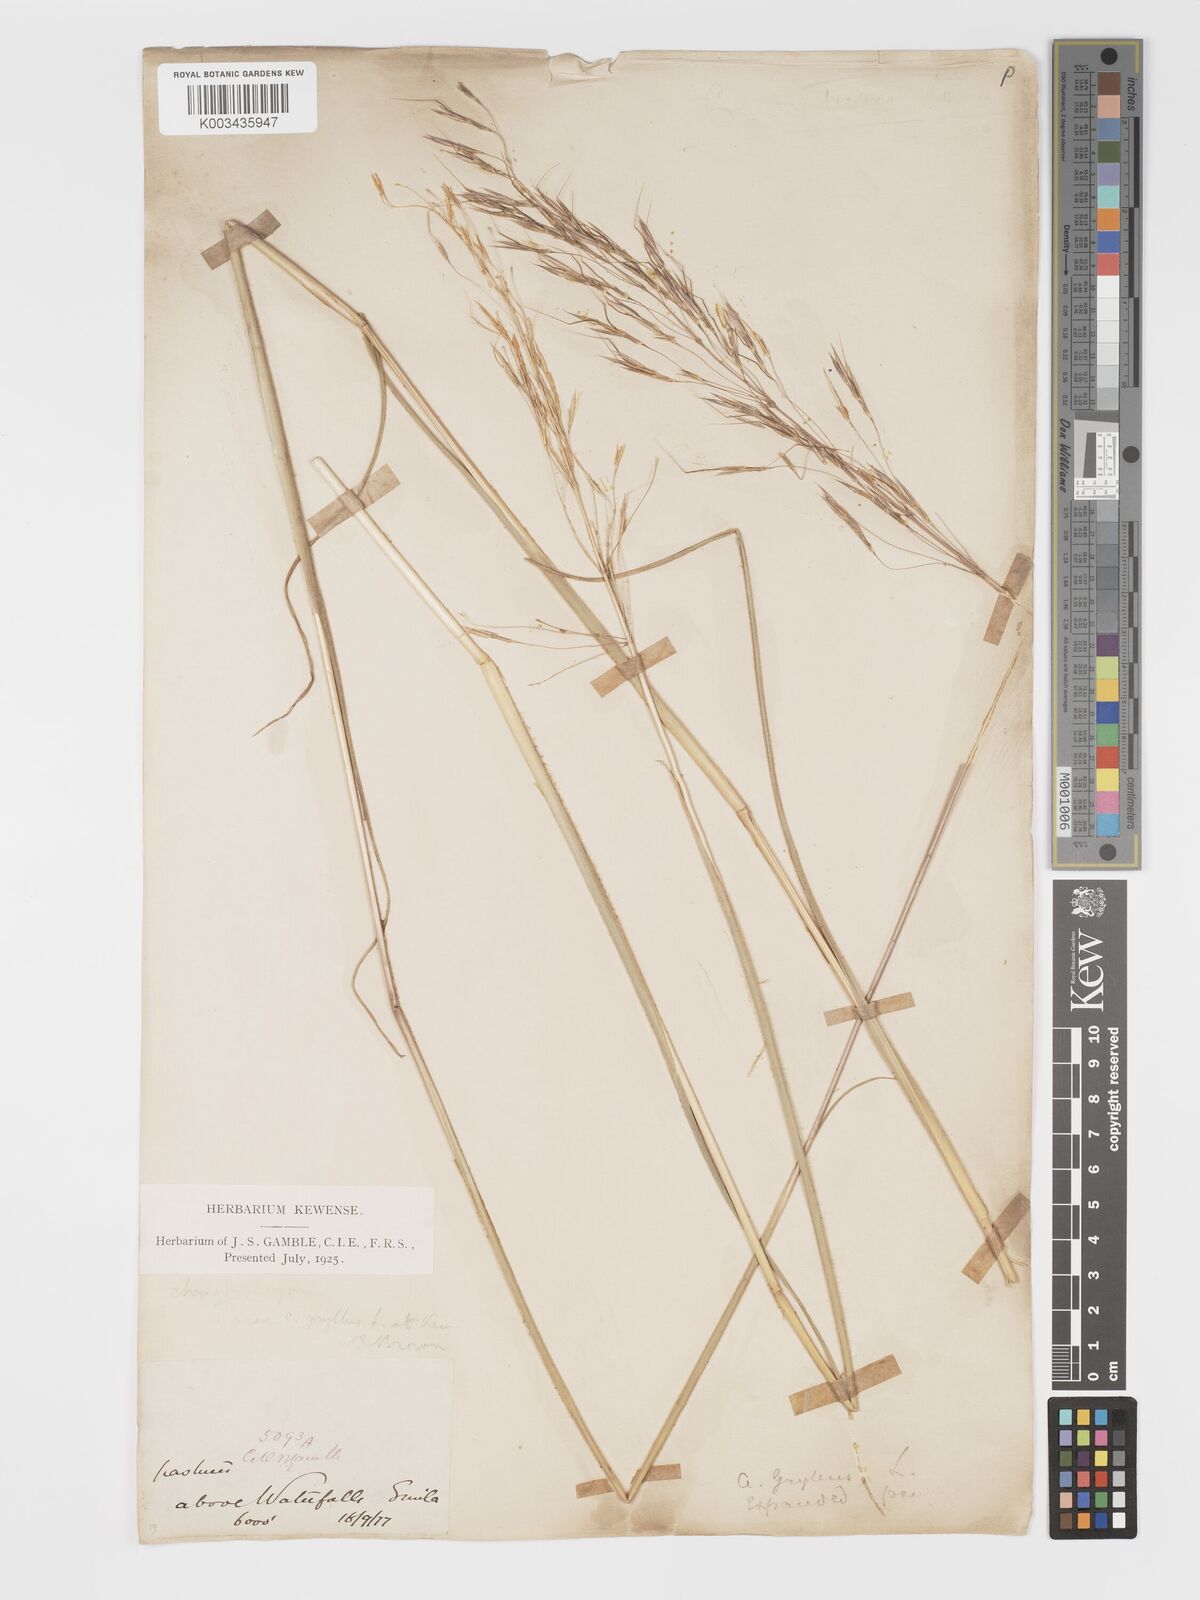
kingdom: Plantae
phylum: Tracheophyta
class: Liliopsida
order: Poales
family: Poaceae
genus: Chrysopogon
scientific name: Chrysopogon gryllus
